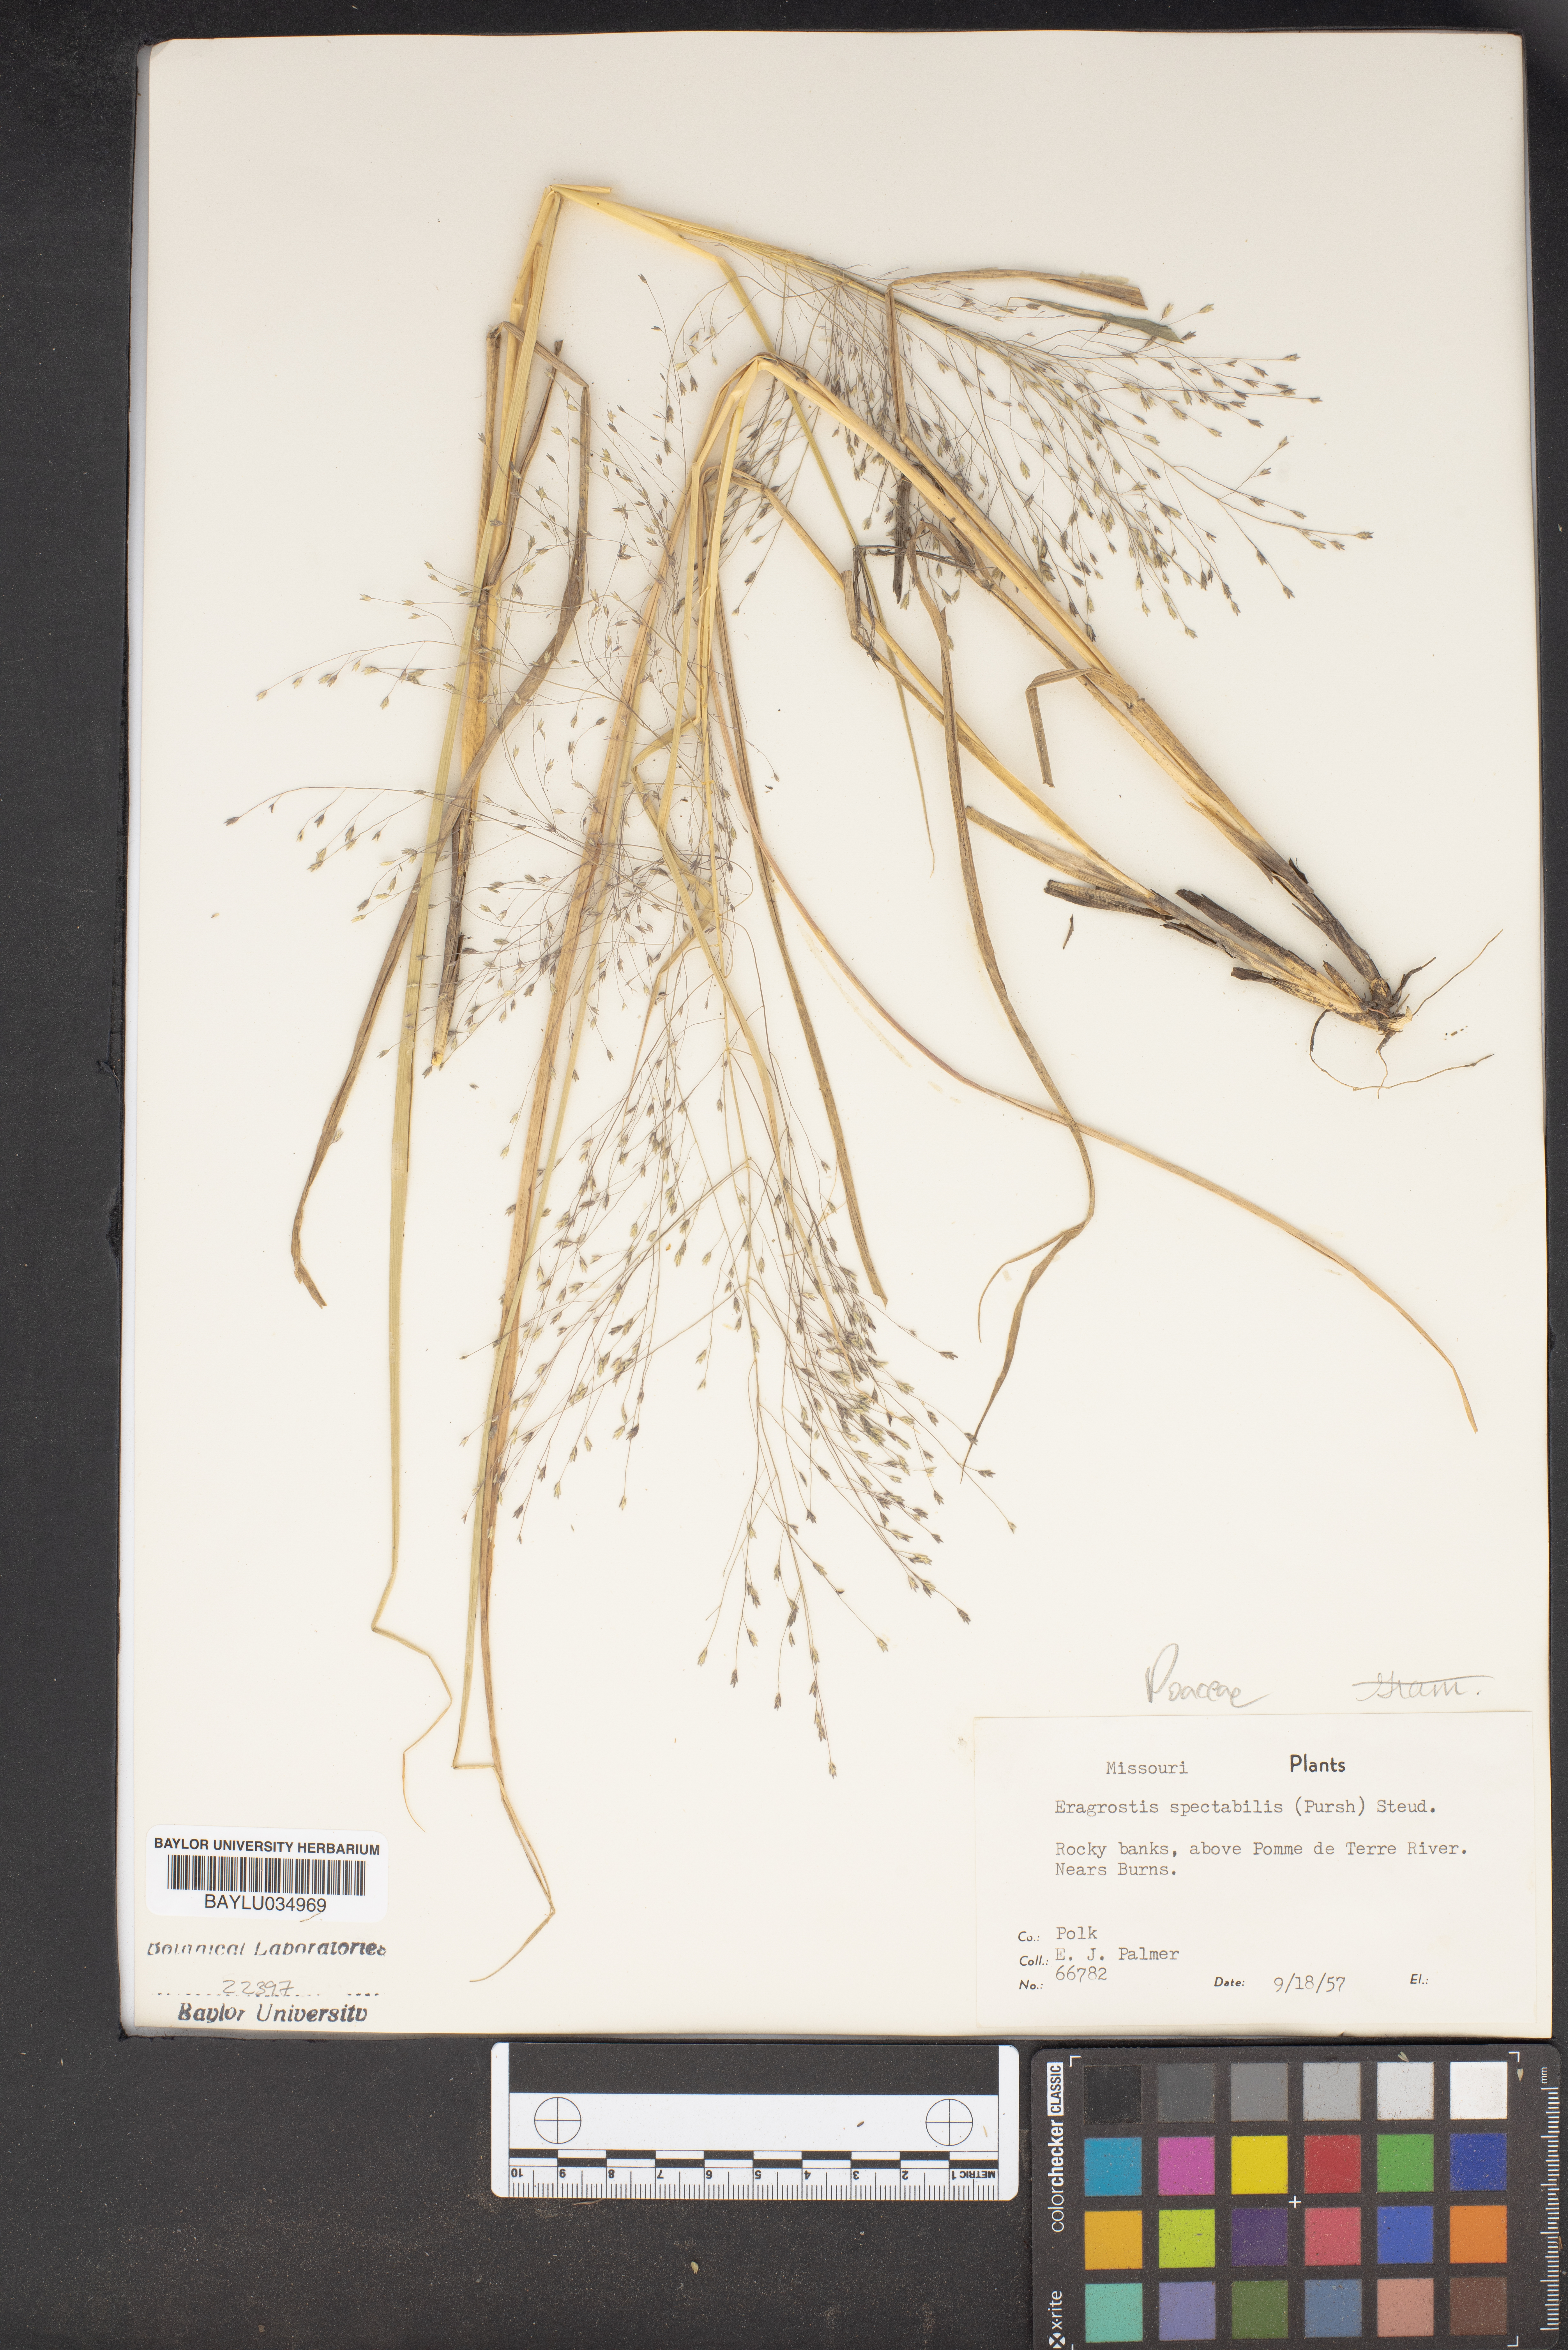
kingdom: Plantae
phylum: Tracheophyta
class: Liliopsida
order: Poales
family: Poaceae
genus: Eragrostis
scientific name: Eragrostis spectabilis
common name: Petticoat-climber
